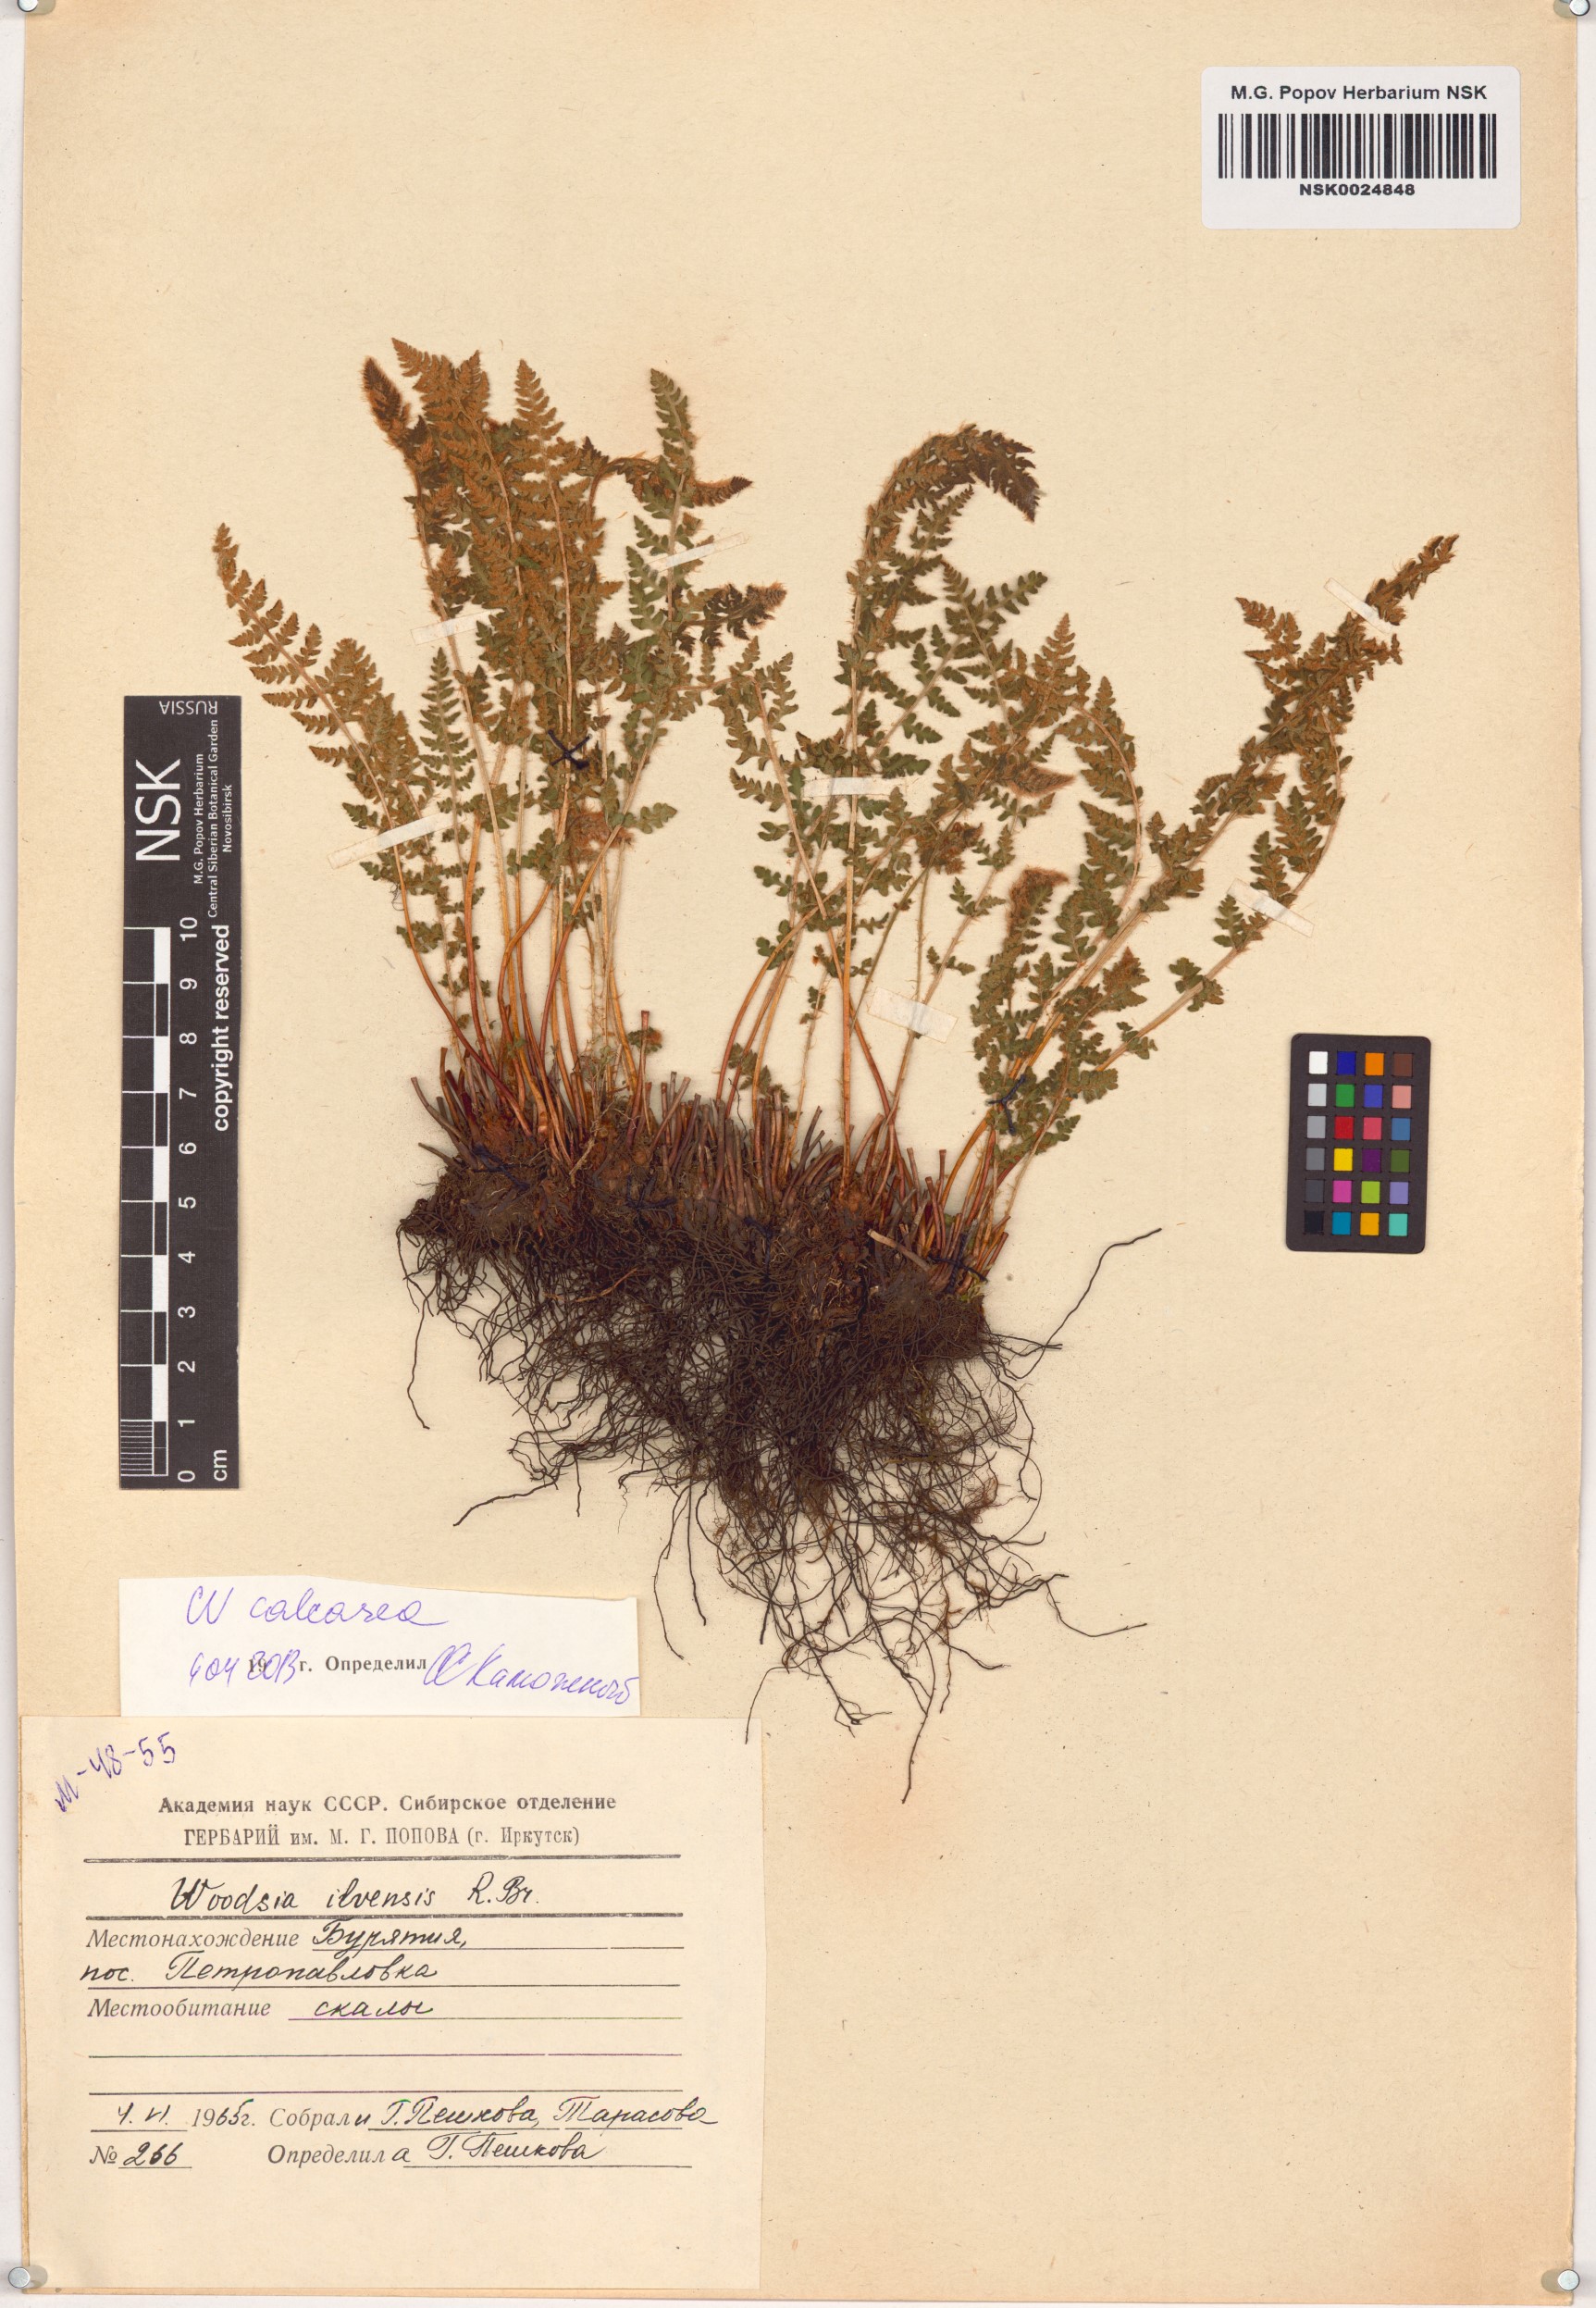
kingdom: Plantae
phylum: Tracheophyta
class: Polypodiopsida
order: Polypodiales
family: Woodsiaceae
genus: Woodsia
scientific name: Woodsia calcarea
